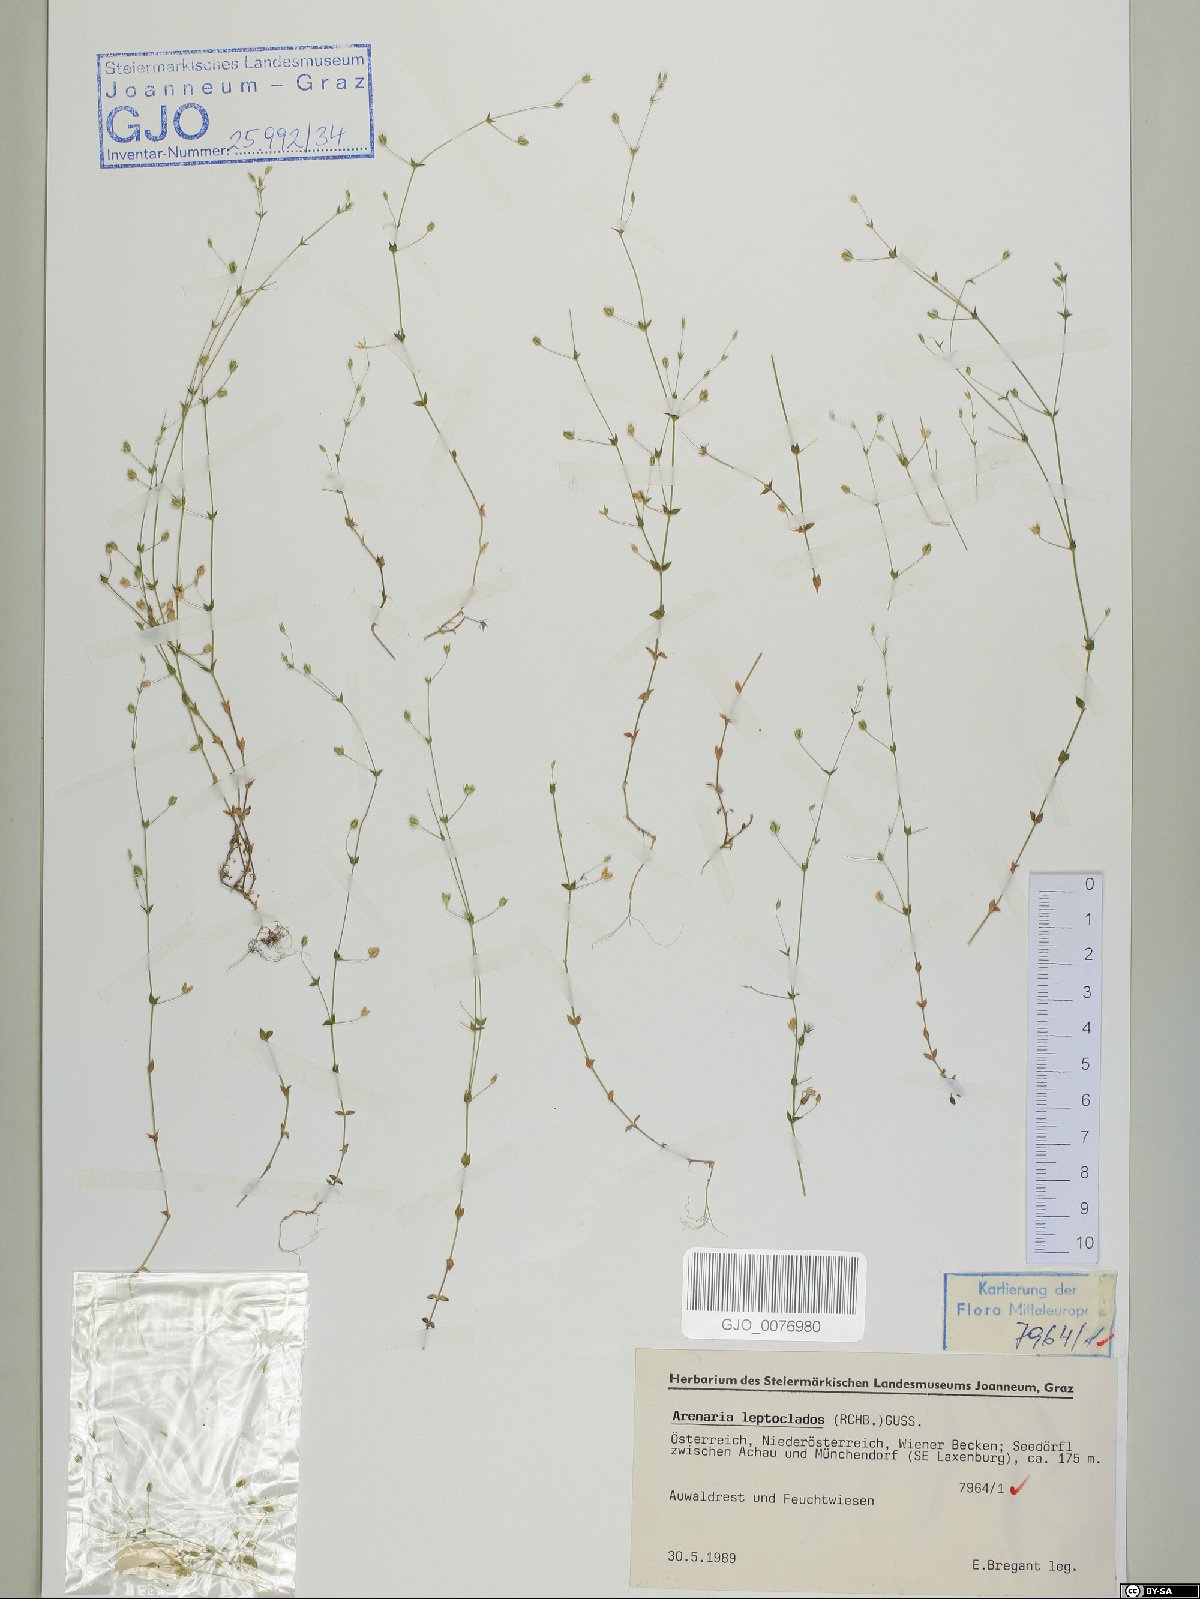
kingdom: Plantae
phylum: Tracheophyta
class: Magnoliopsida
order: Caryophyllales
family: Caryophyllaceae
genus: Arenaria
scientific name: Arenaria leptoclados
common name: Thyme-leaved sandwort
